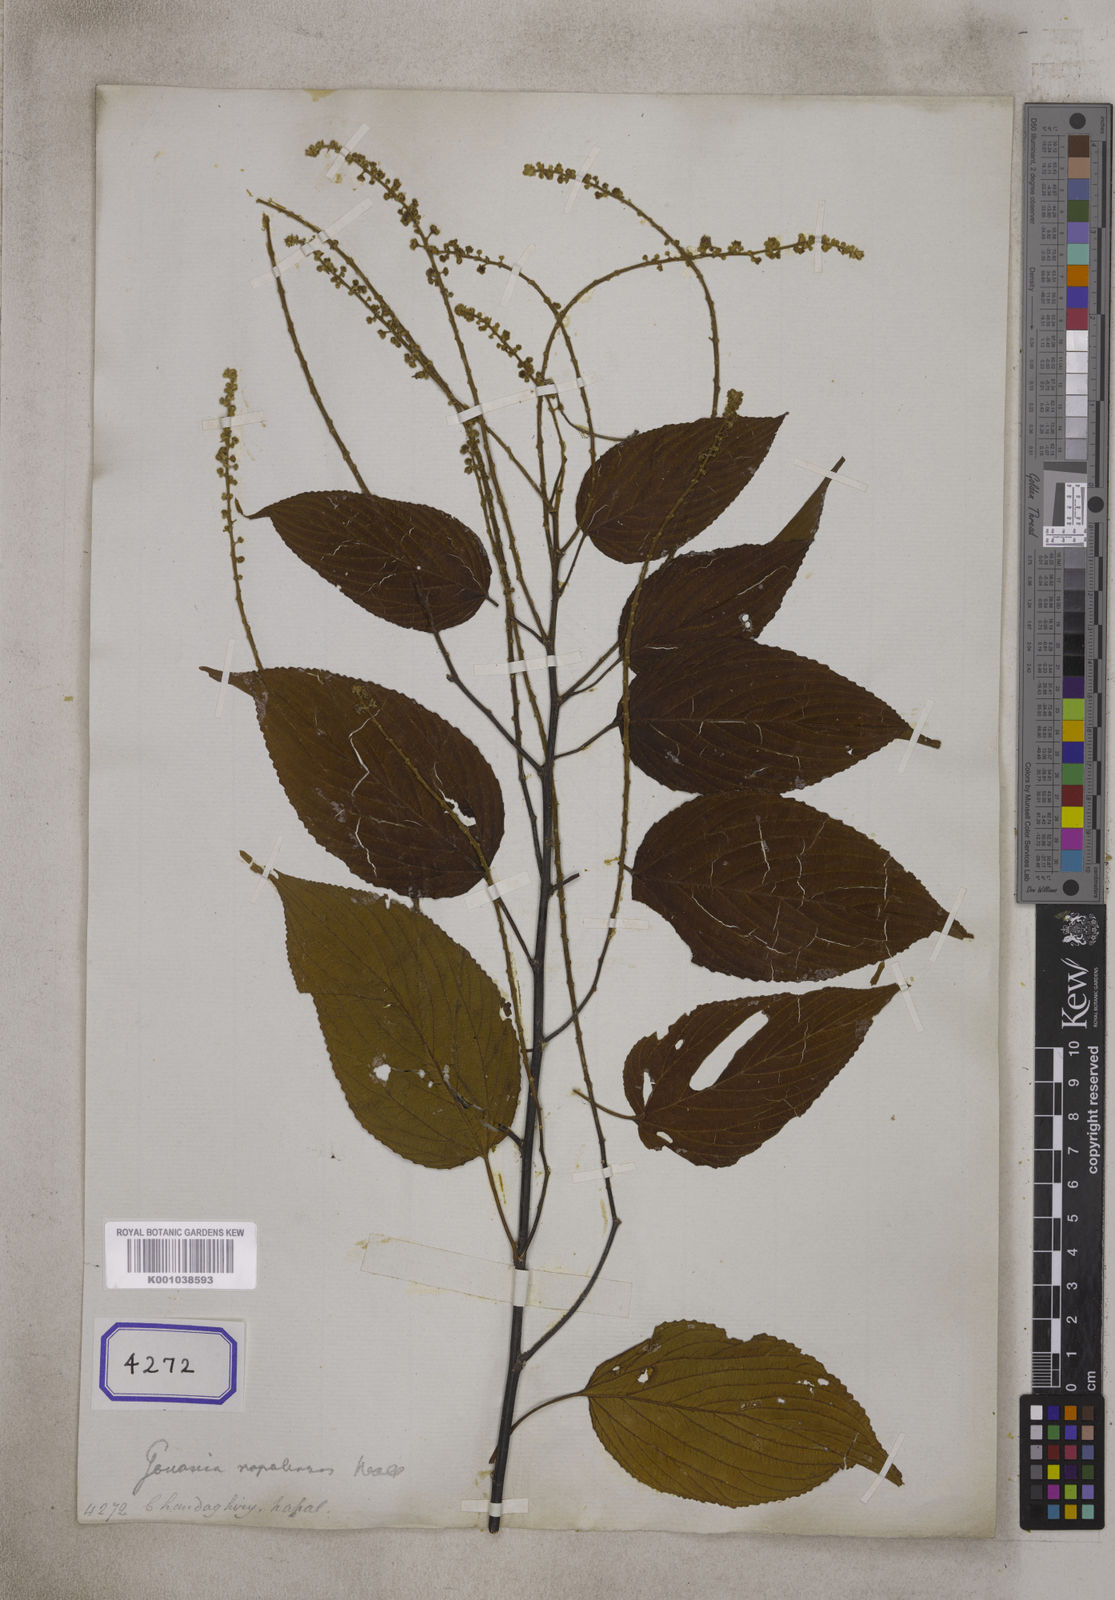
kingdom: Plantae
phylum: Tracheophyta
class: Magnoliopsida
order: Rosales
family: Rhamnaceae
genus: Gouania
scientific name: Gouania napalensis
